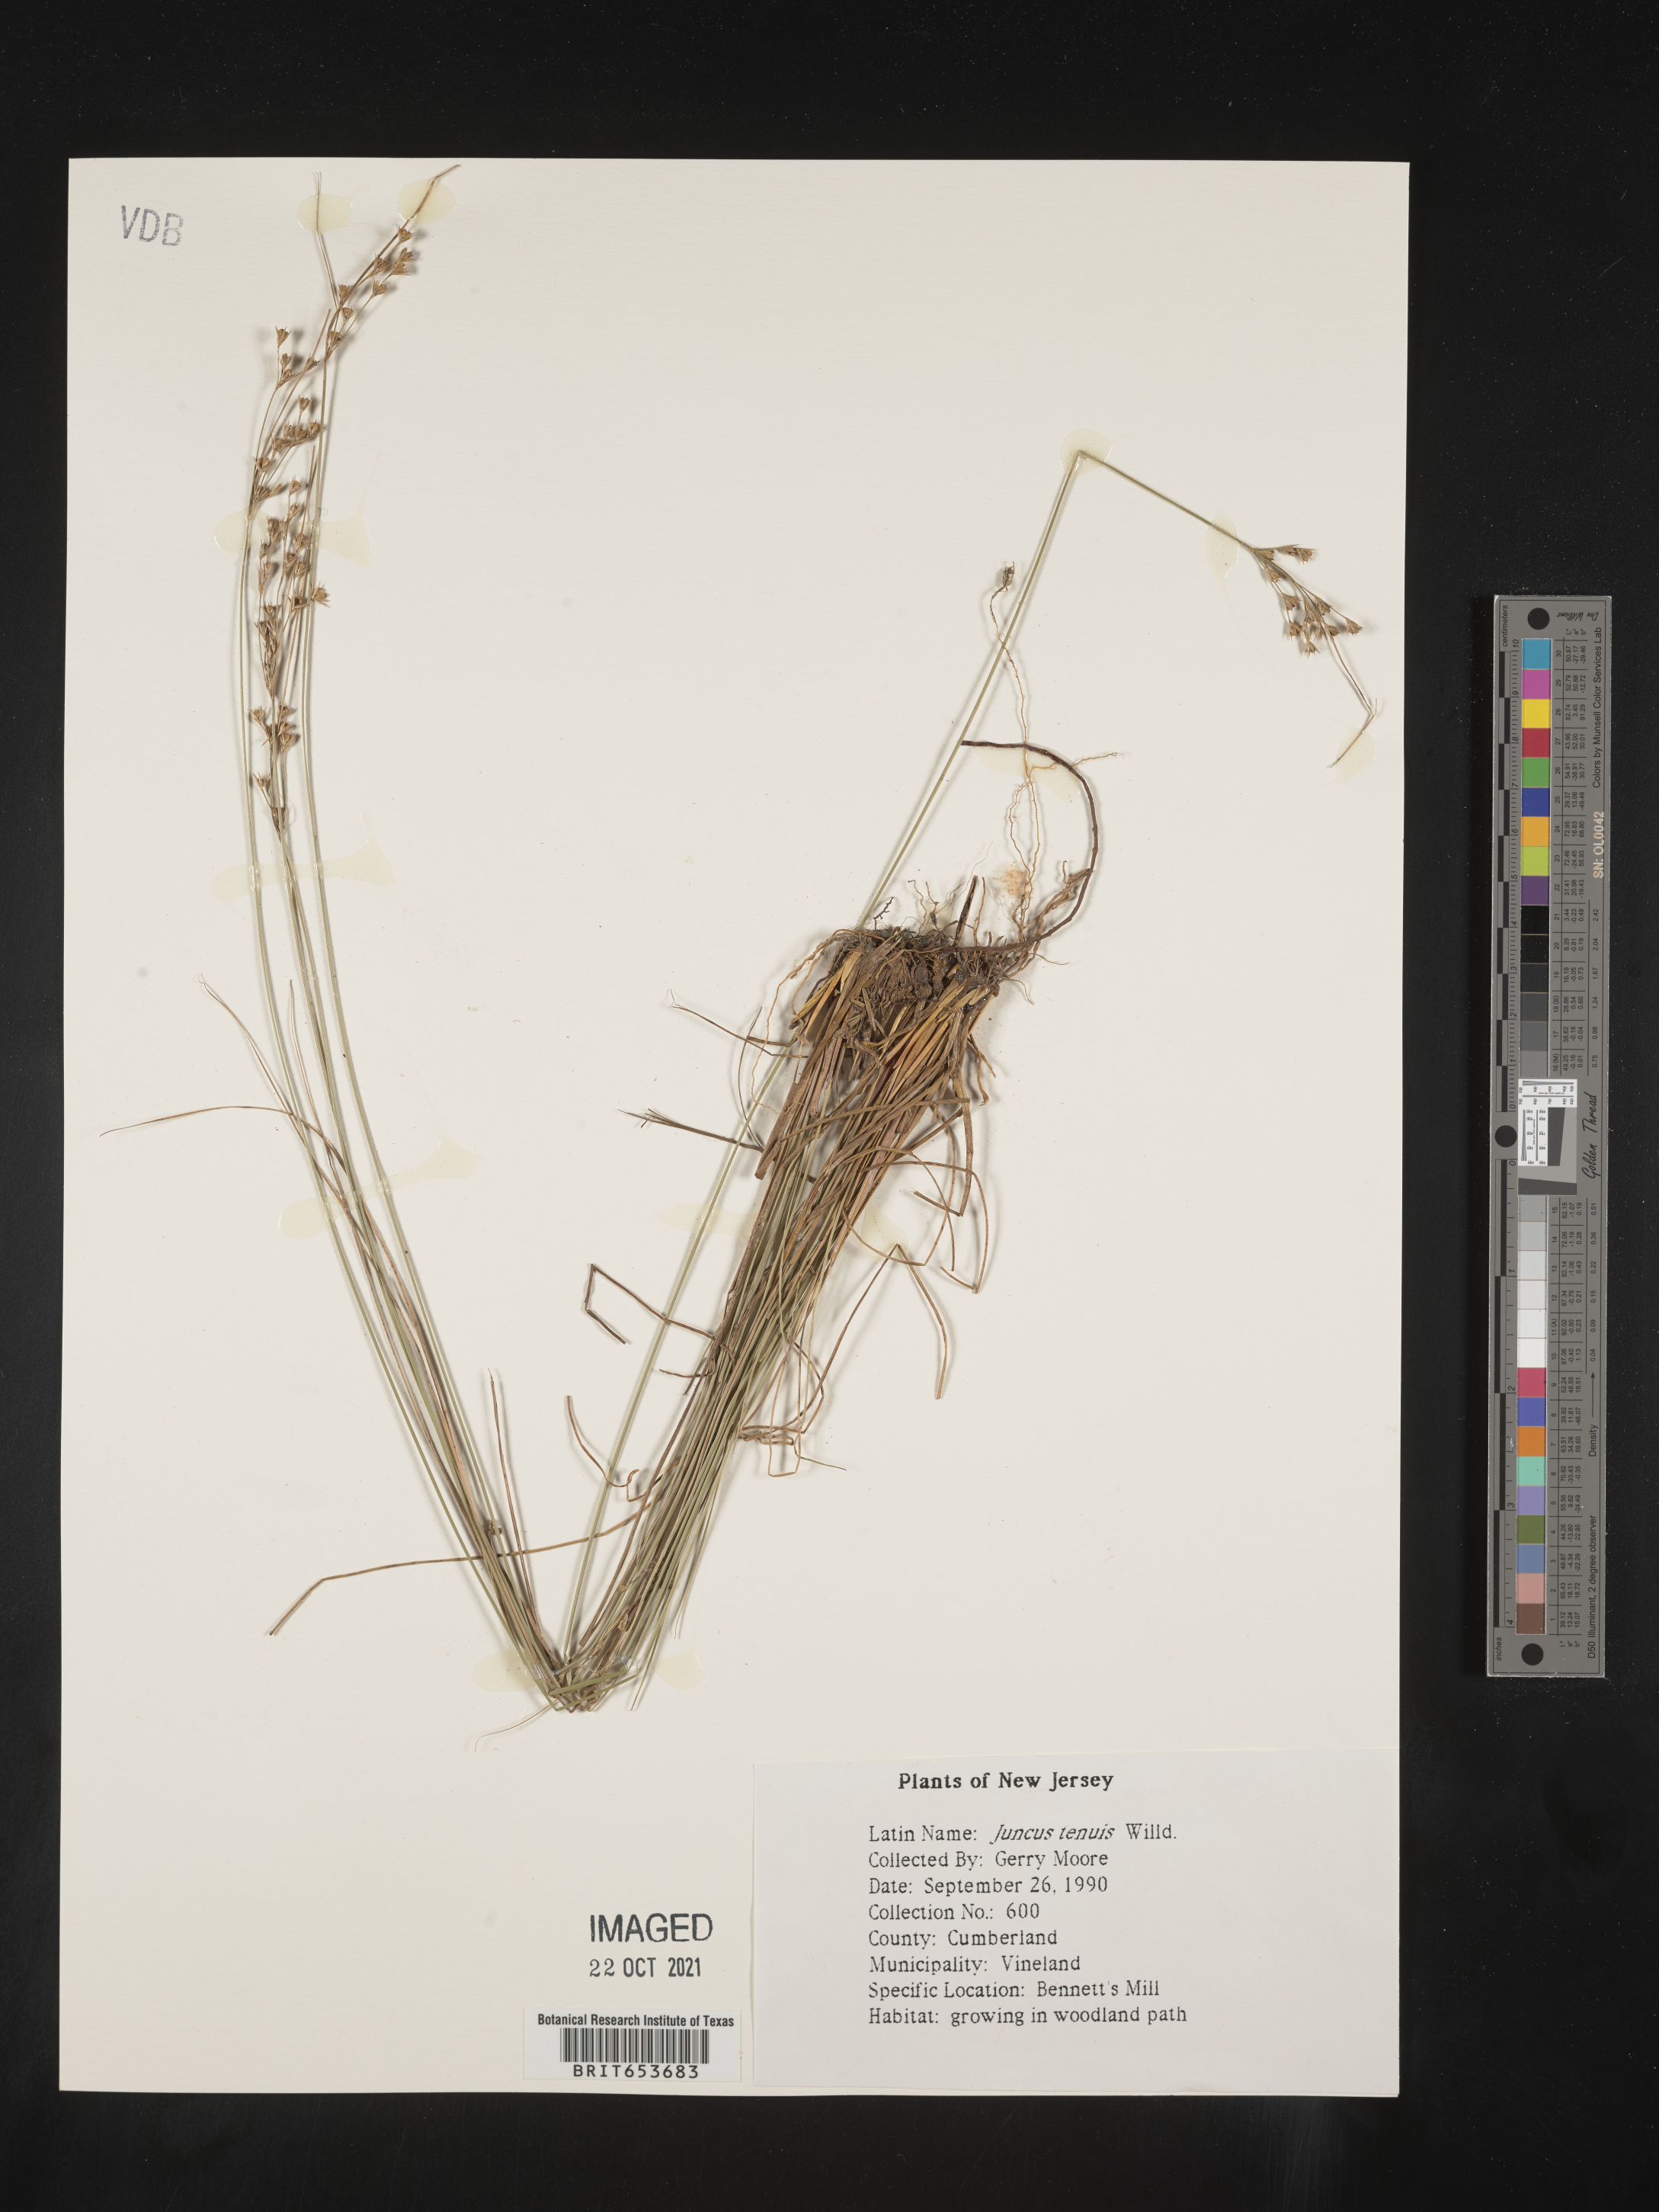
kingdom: Plantae
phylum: Tracheophyta
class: Liliopsida
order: Poales
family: Juncaceae
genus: Juncus
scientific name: Juncus tenuis
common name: Slender rush
